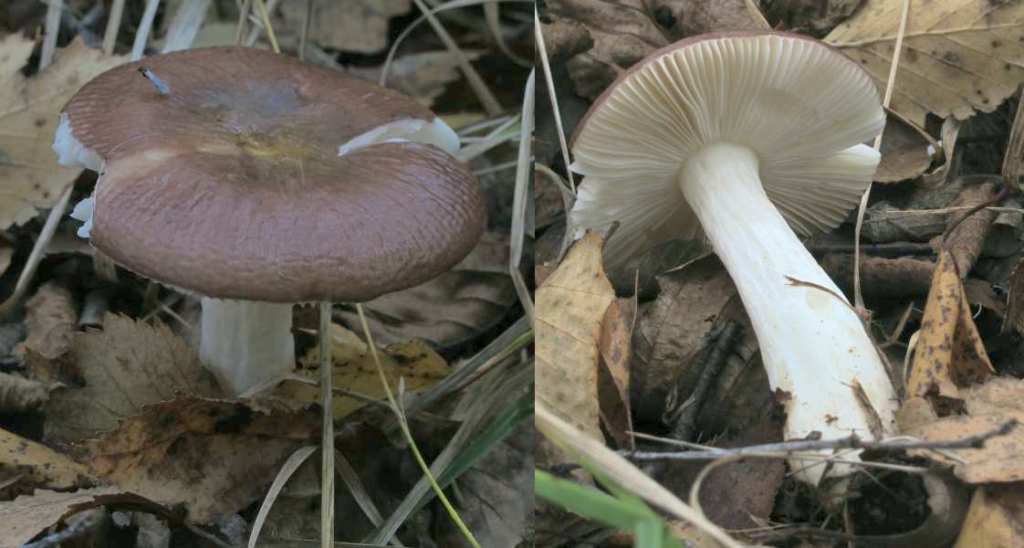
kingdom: Fungi
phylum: Basidiomycota
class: Agaricomycetes
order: Russulales
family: Russulaceae
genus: Russula
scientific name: Russula nitida
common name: året skørhat
